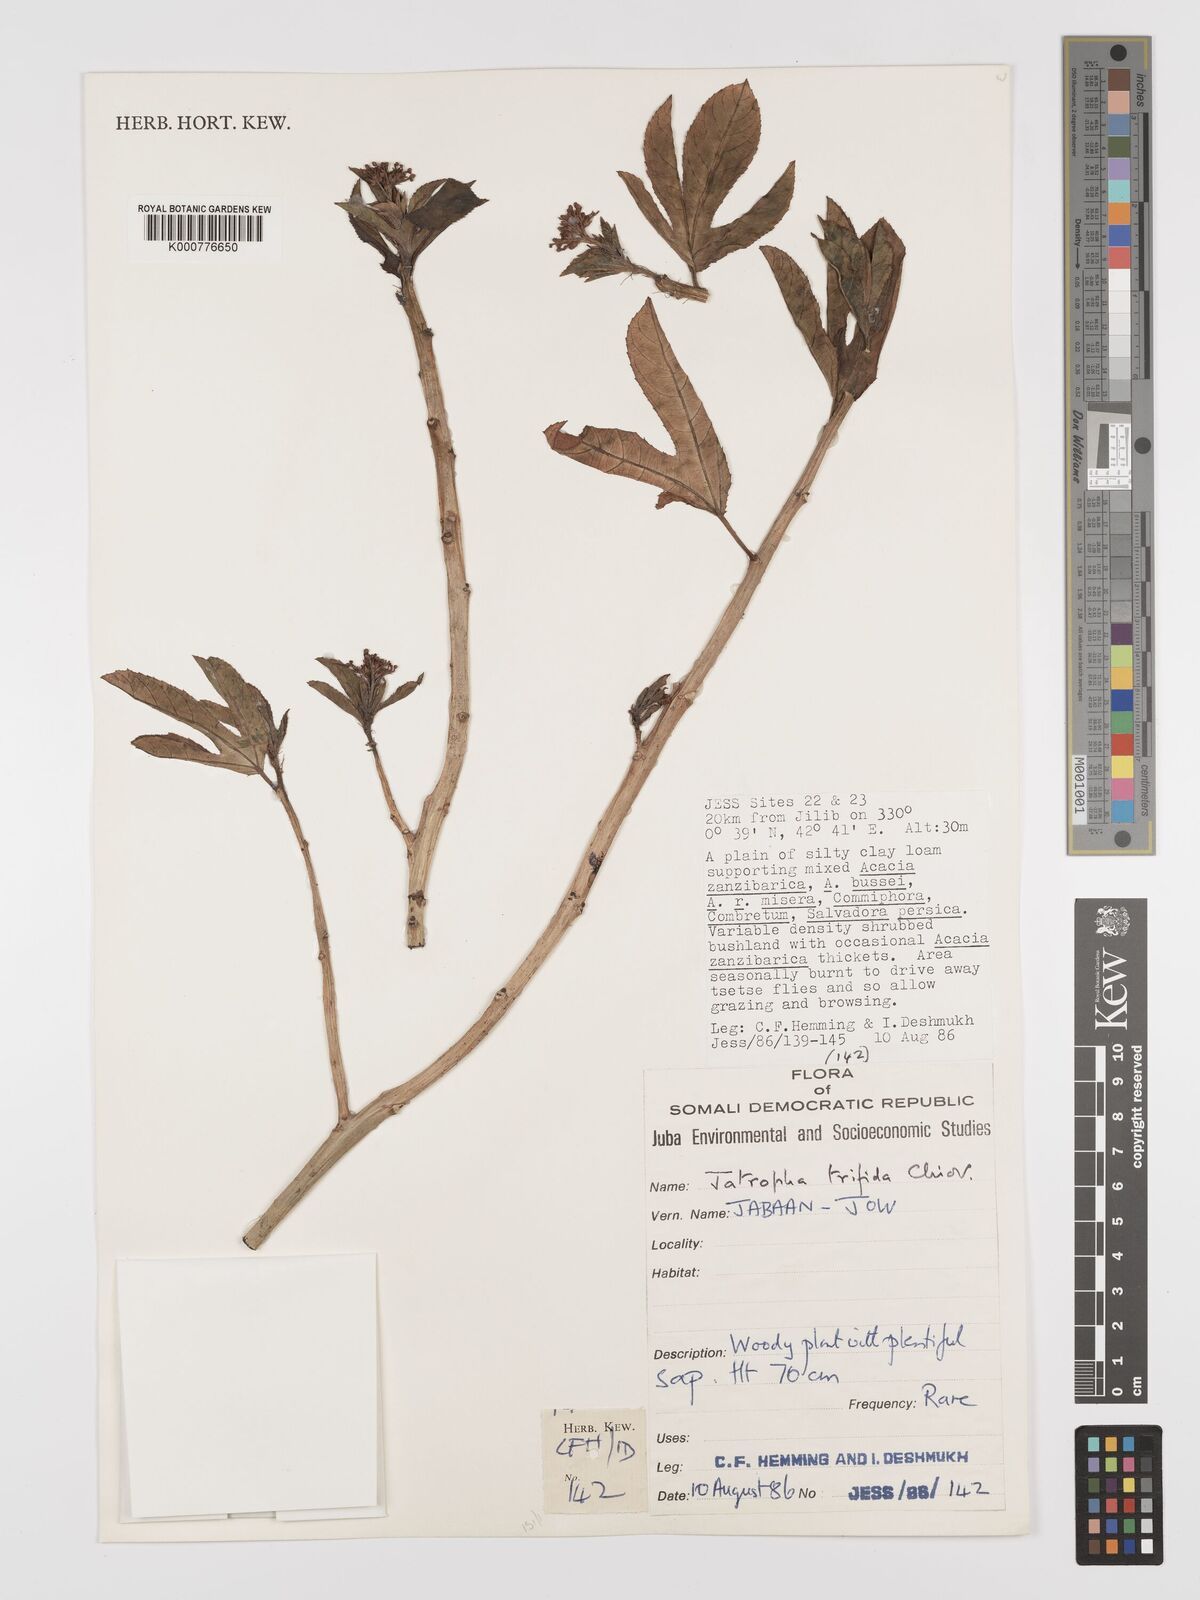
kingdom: Plantae
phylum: Tracheophyta
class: Magnoliopsida
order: Malpighiales
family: Euphorbiaceae
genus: Jatropha
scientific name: Jatropha trifida
